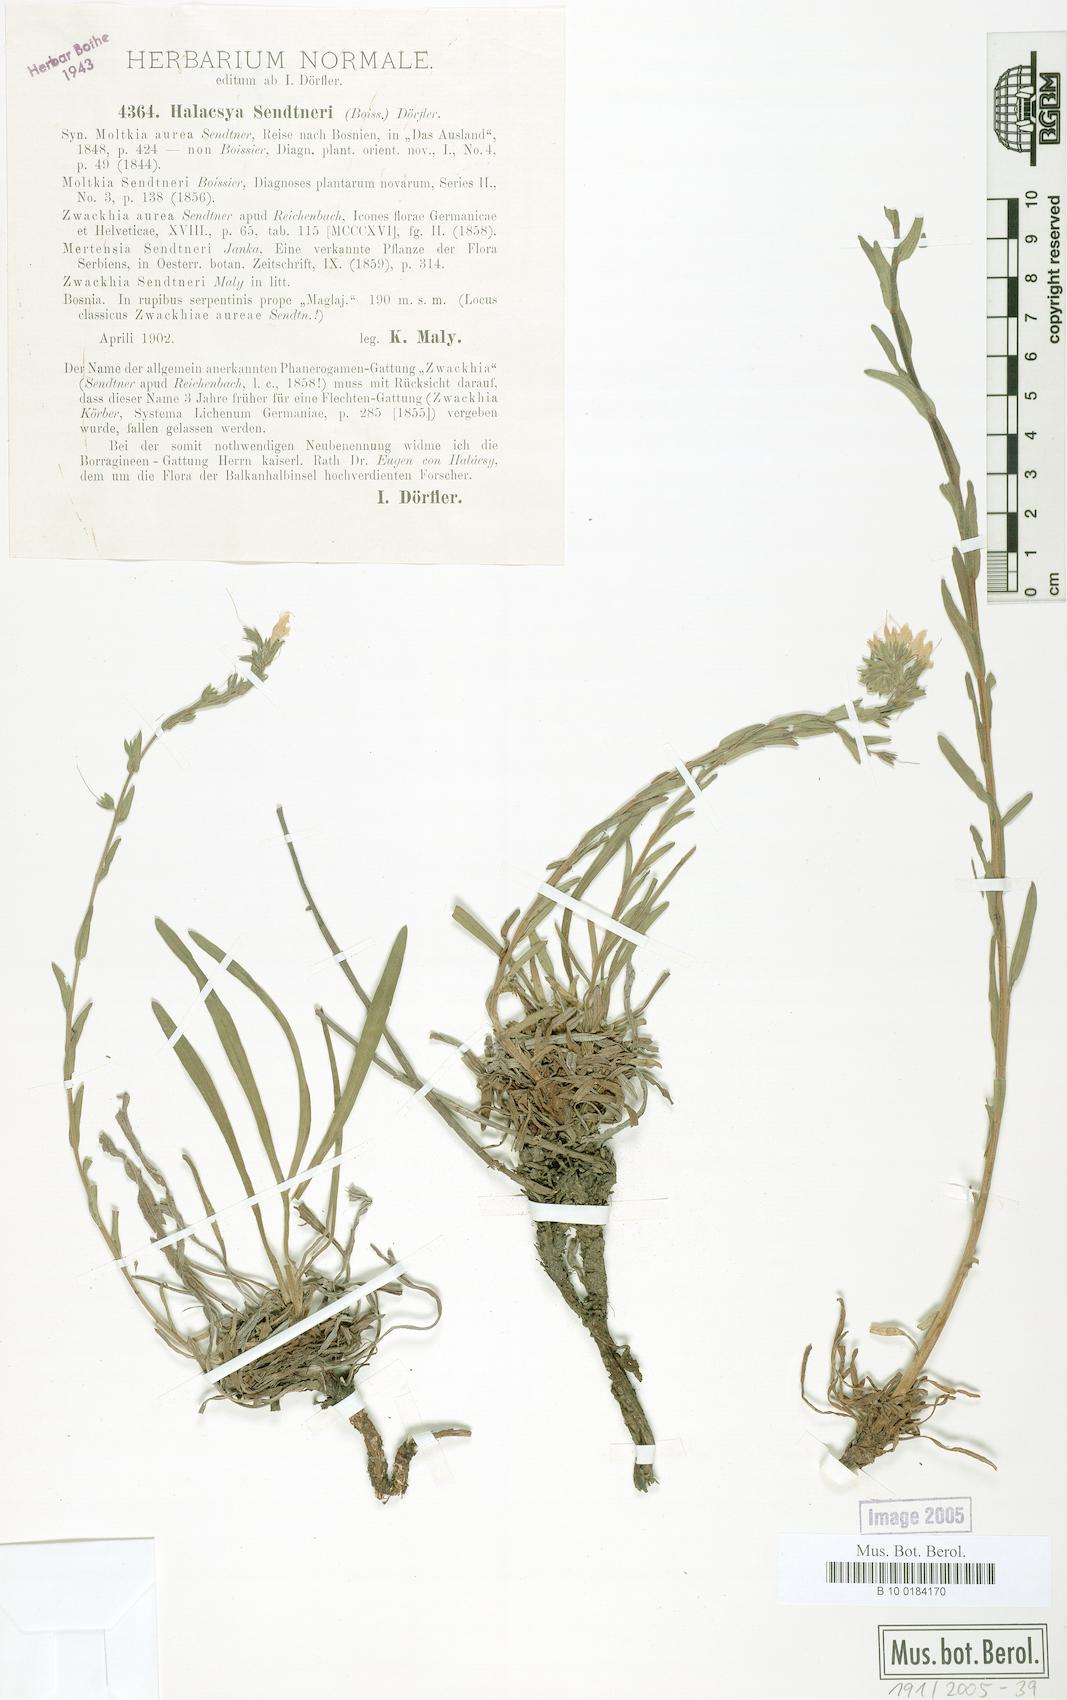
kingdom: Plantae
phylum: Tracheophyta
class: Magnoliopsida
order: Boraginales
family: Boraginaceae
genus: Halacsya
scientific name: Halacsya sendtneri
